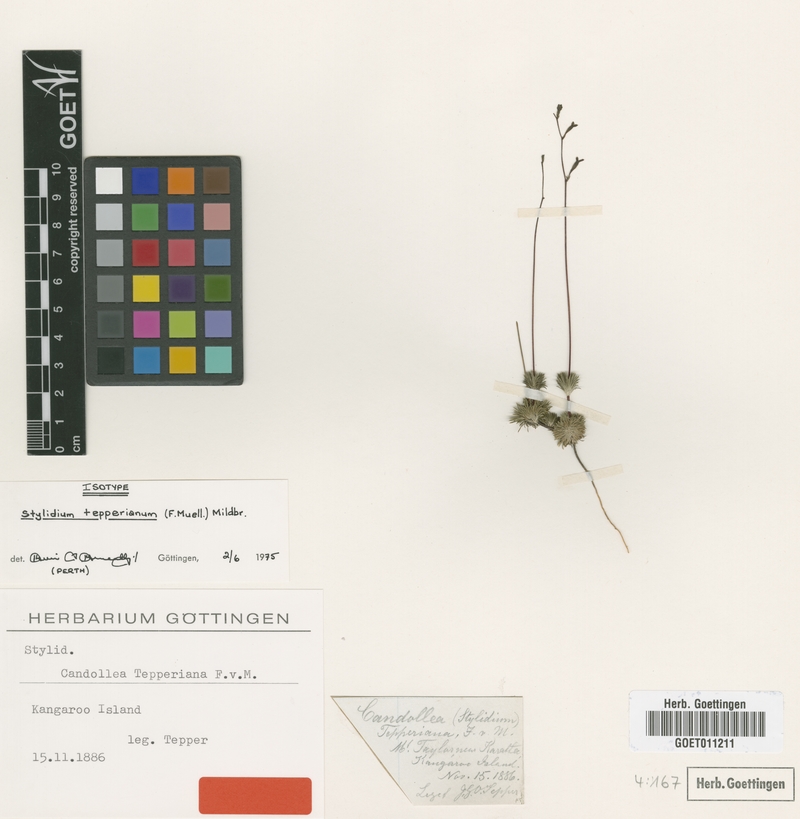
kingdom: Plantae
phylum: Tracheophyta
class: Magnoliopsida
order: Asterales
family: Stylidiaceae
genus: Stylidium
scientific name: Stylidium tepperianum
